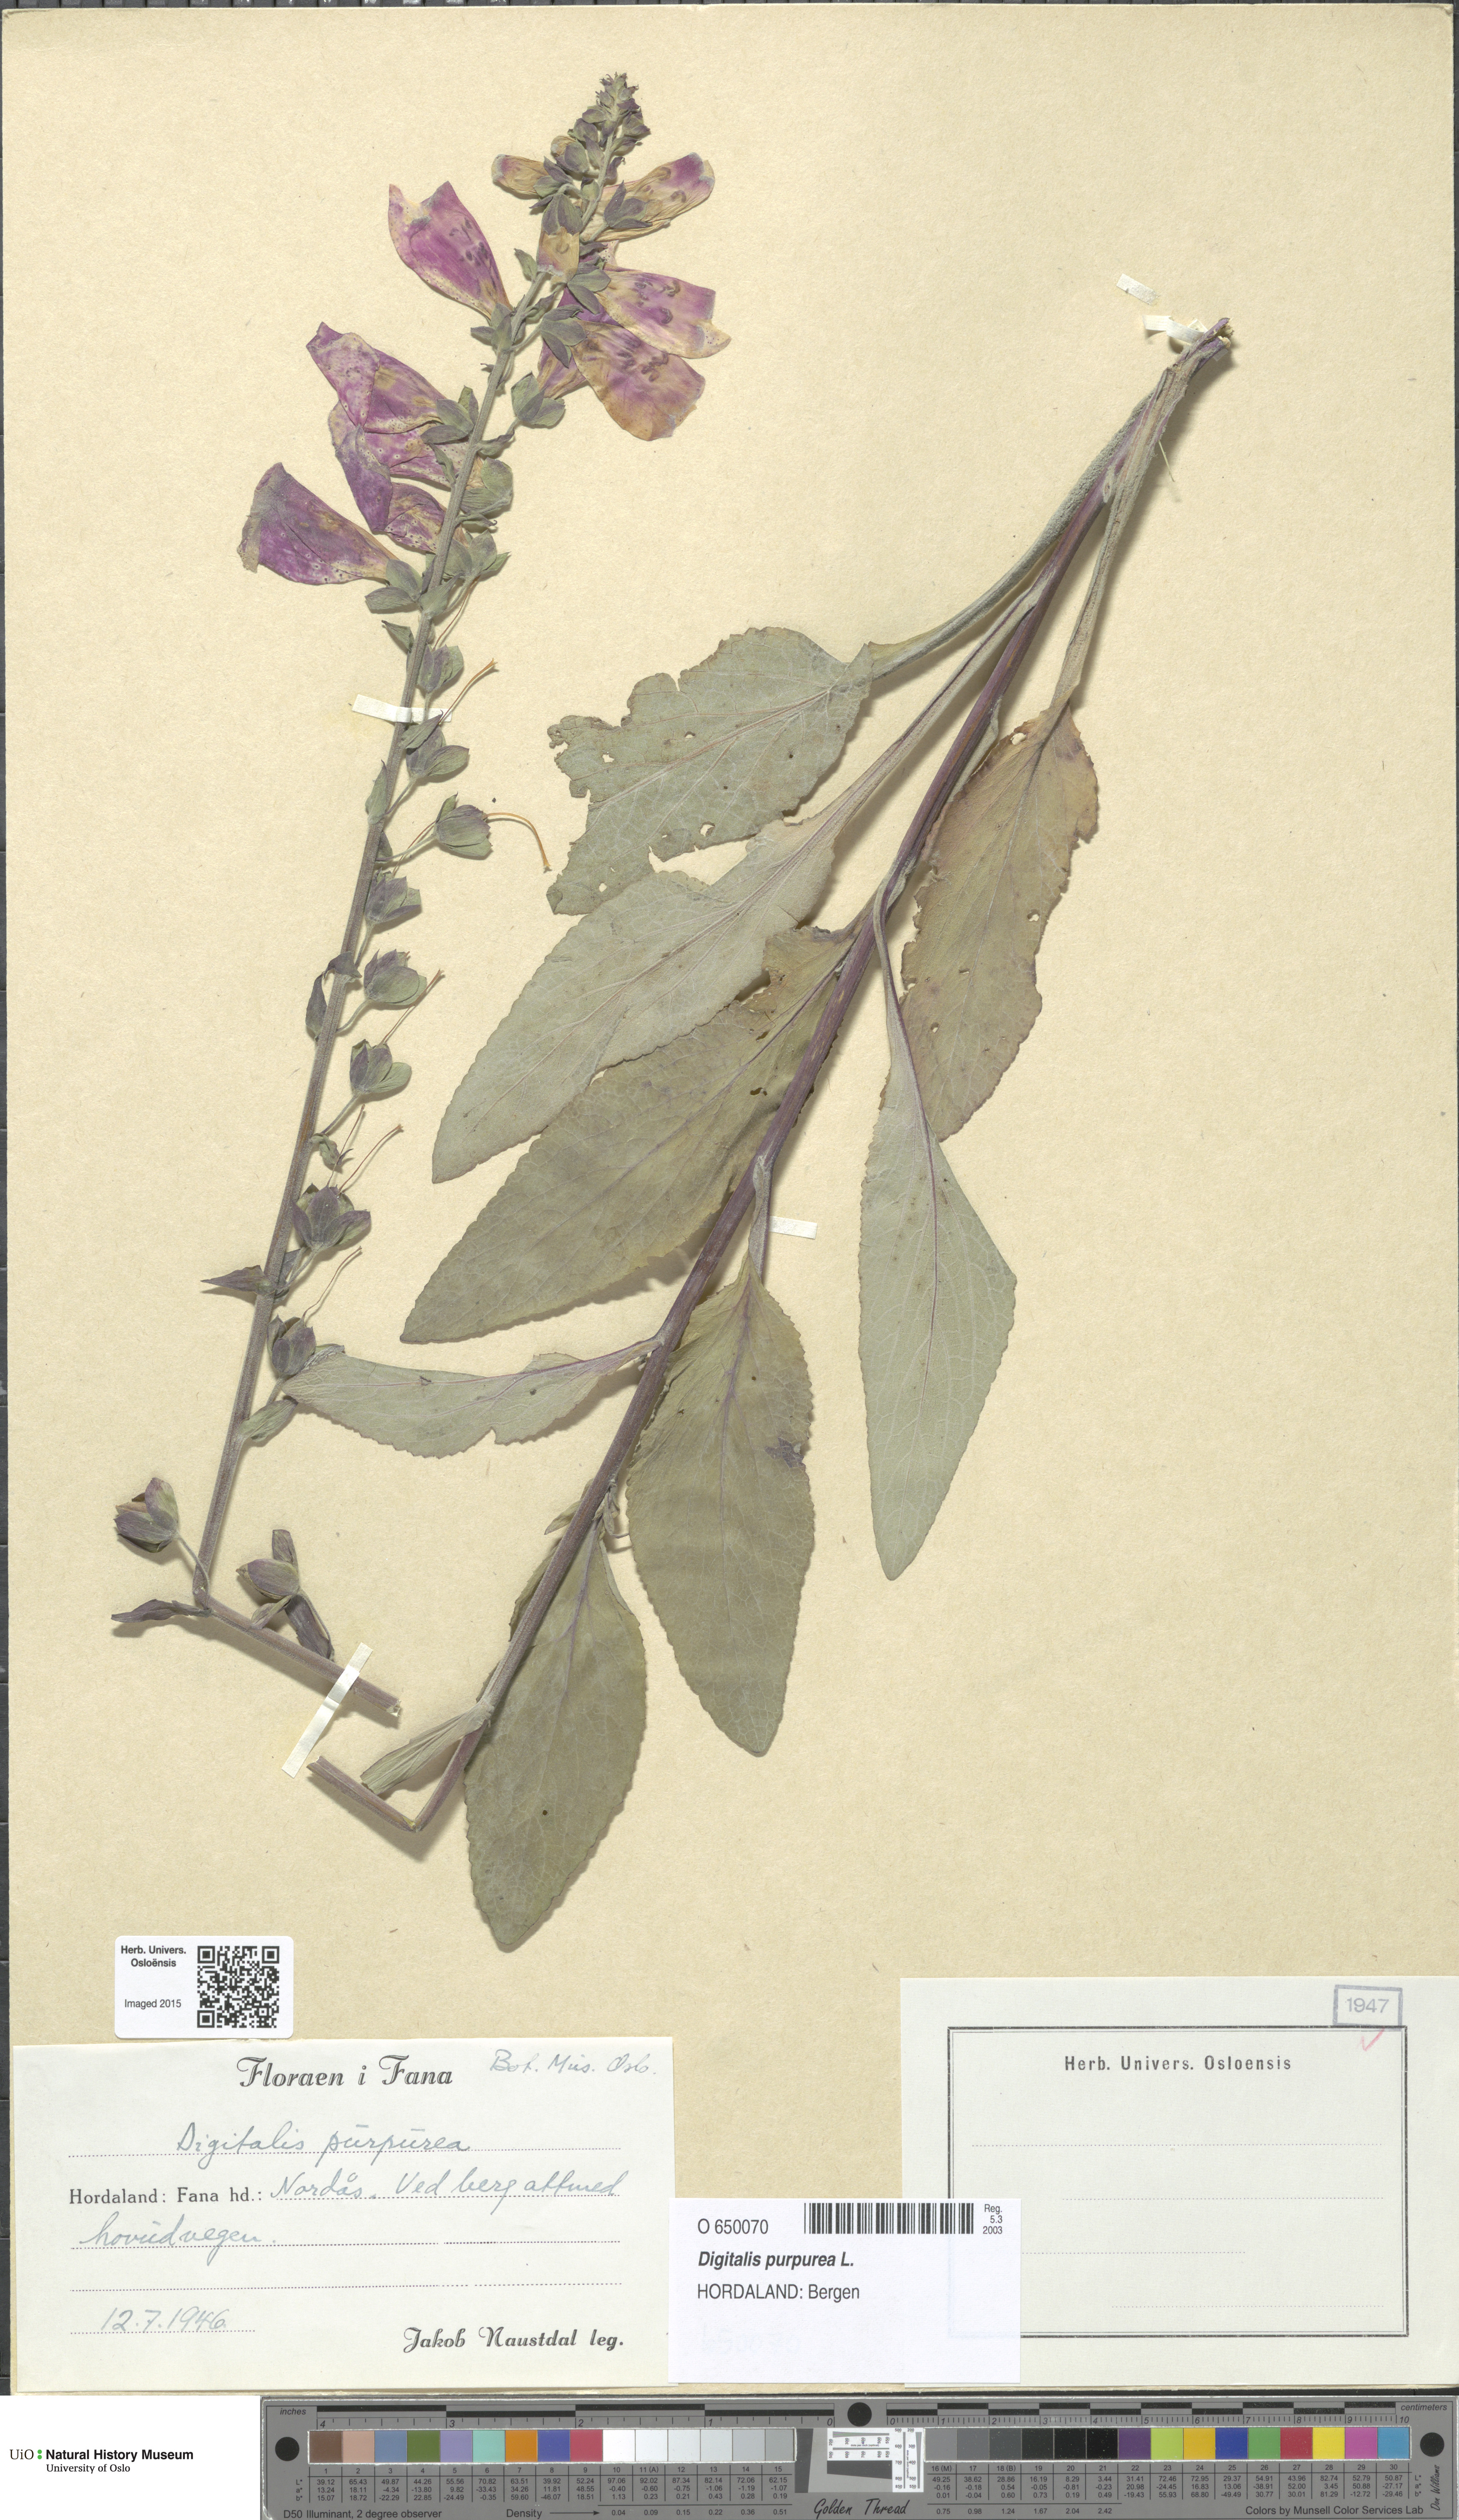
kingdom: Plantae
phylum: Tracheophyta
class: Magnoliopsida
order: Lamiales
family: Plantaginaceae
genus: Digitalis
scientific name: Digitalis purpurea
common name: Foxglove
